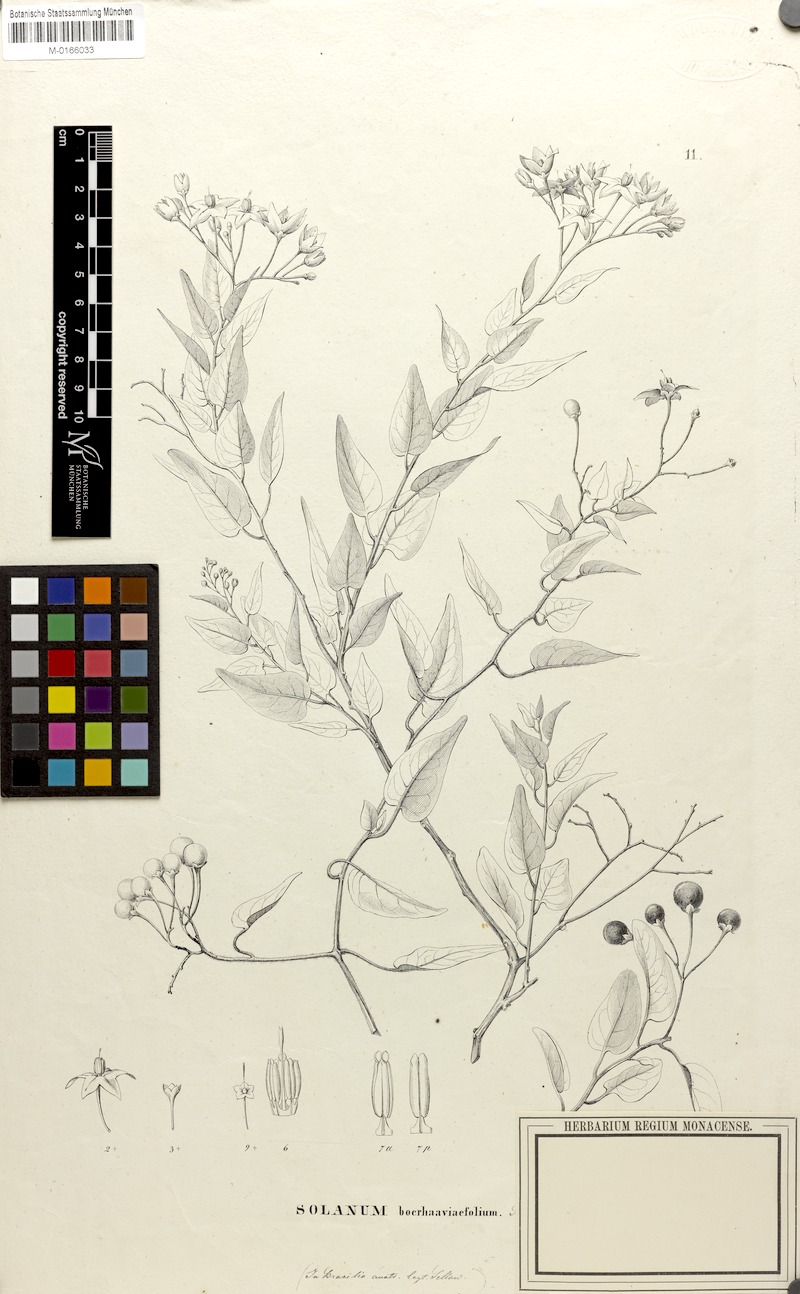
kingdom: Plantae
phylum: Tracheophyta
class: Magnoliopsida
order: Solanales
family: Solanaceae
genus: Solanum
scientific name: Solanum laxum
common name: Nightshade
